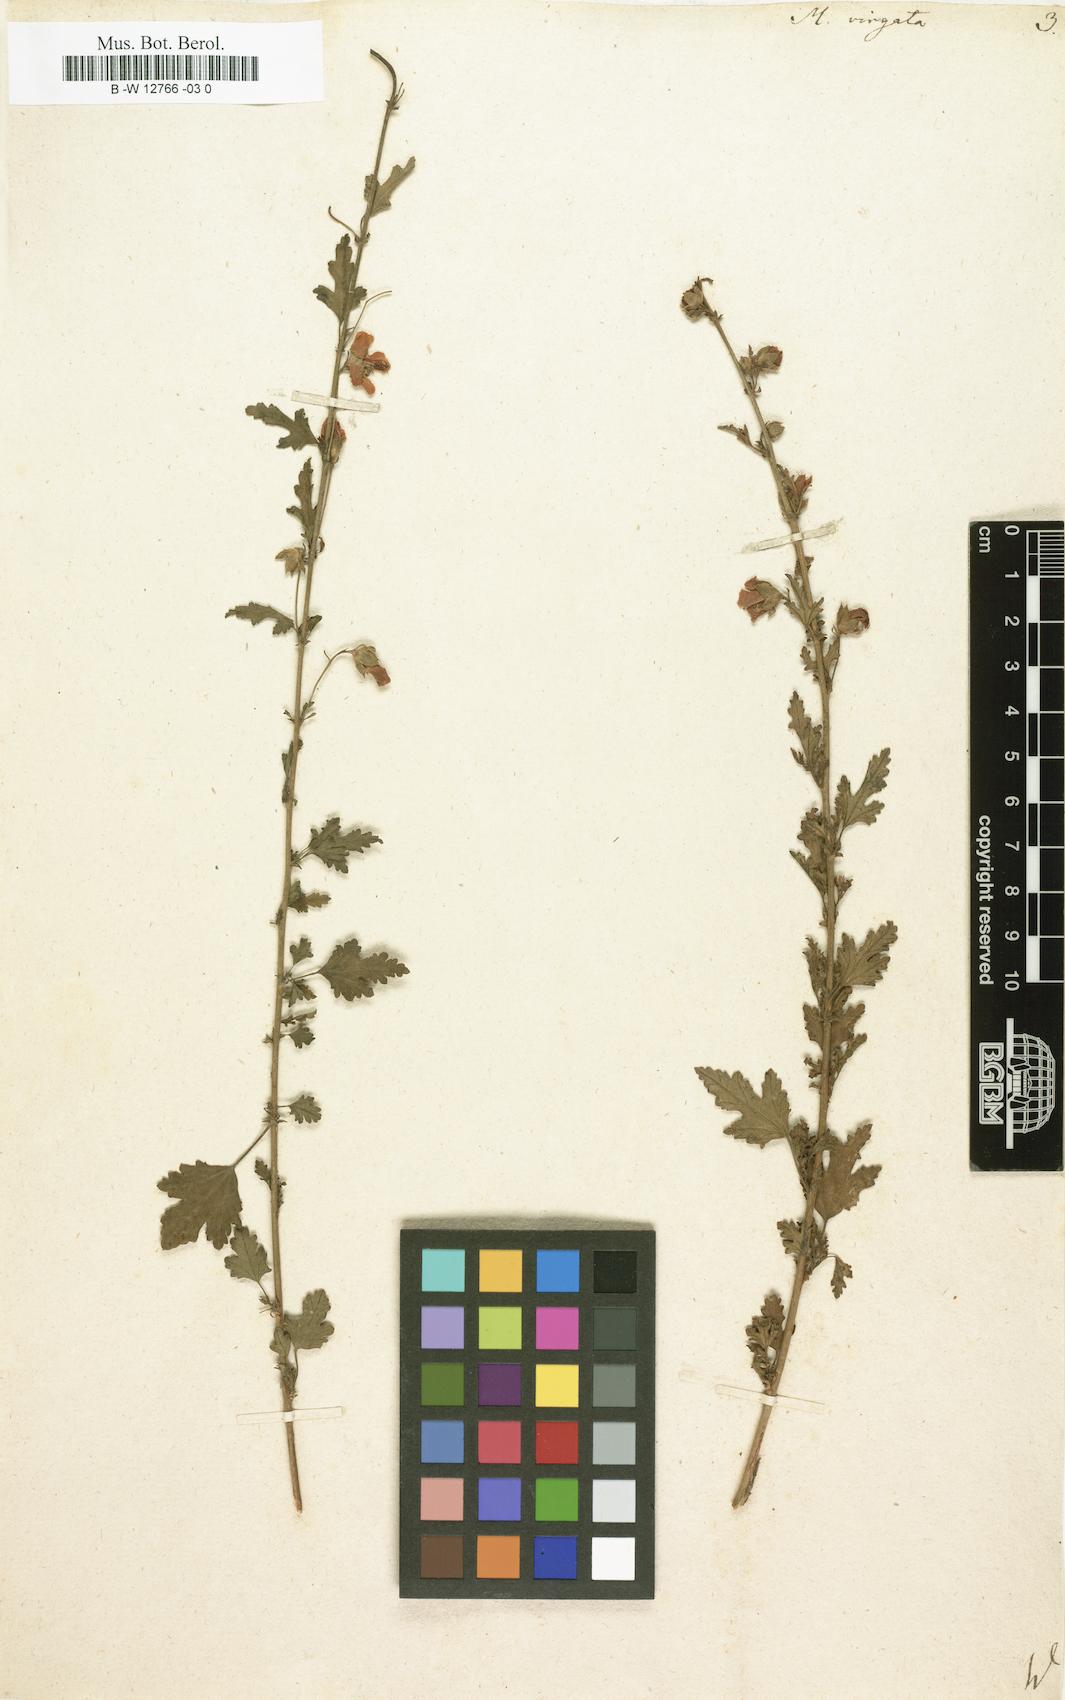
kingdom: Plantae
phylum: Tracheophyta
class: Magnoliopsida
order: Malvales
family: Malvaceae
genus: Anisodontea
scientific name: Anisodontea
